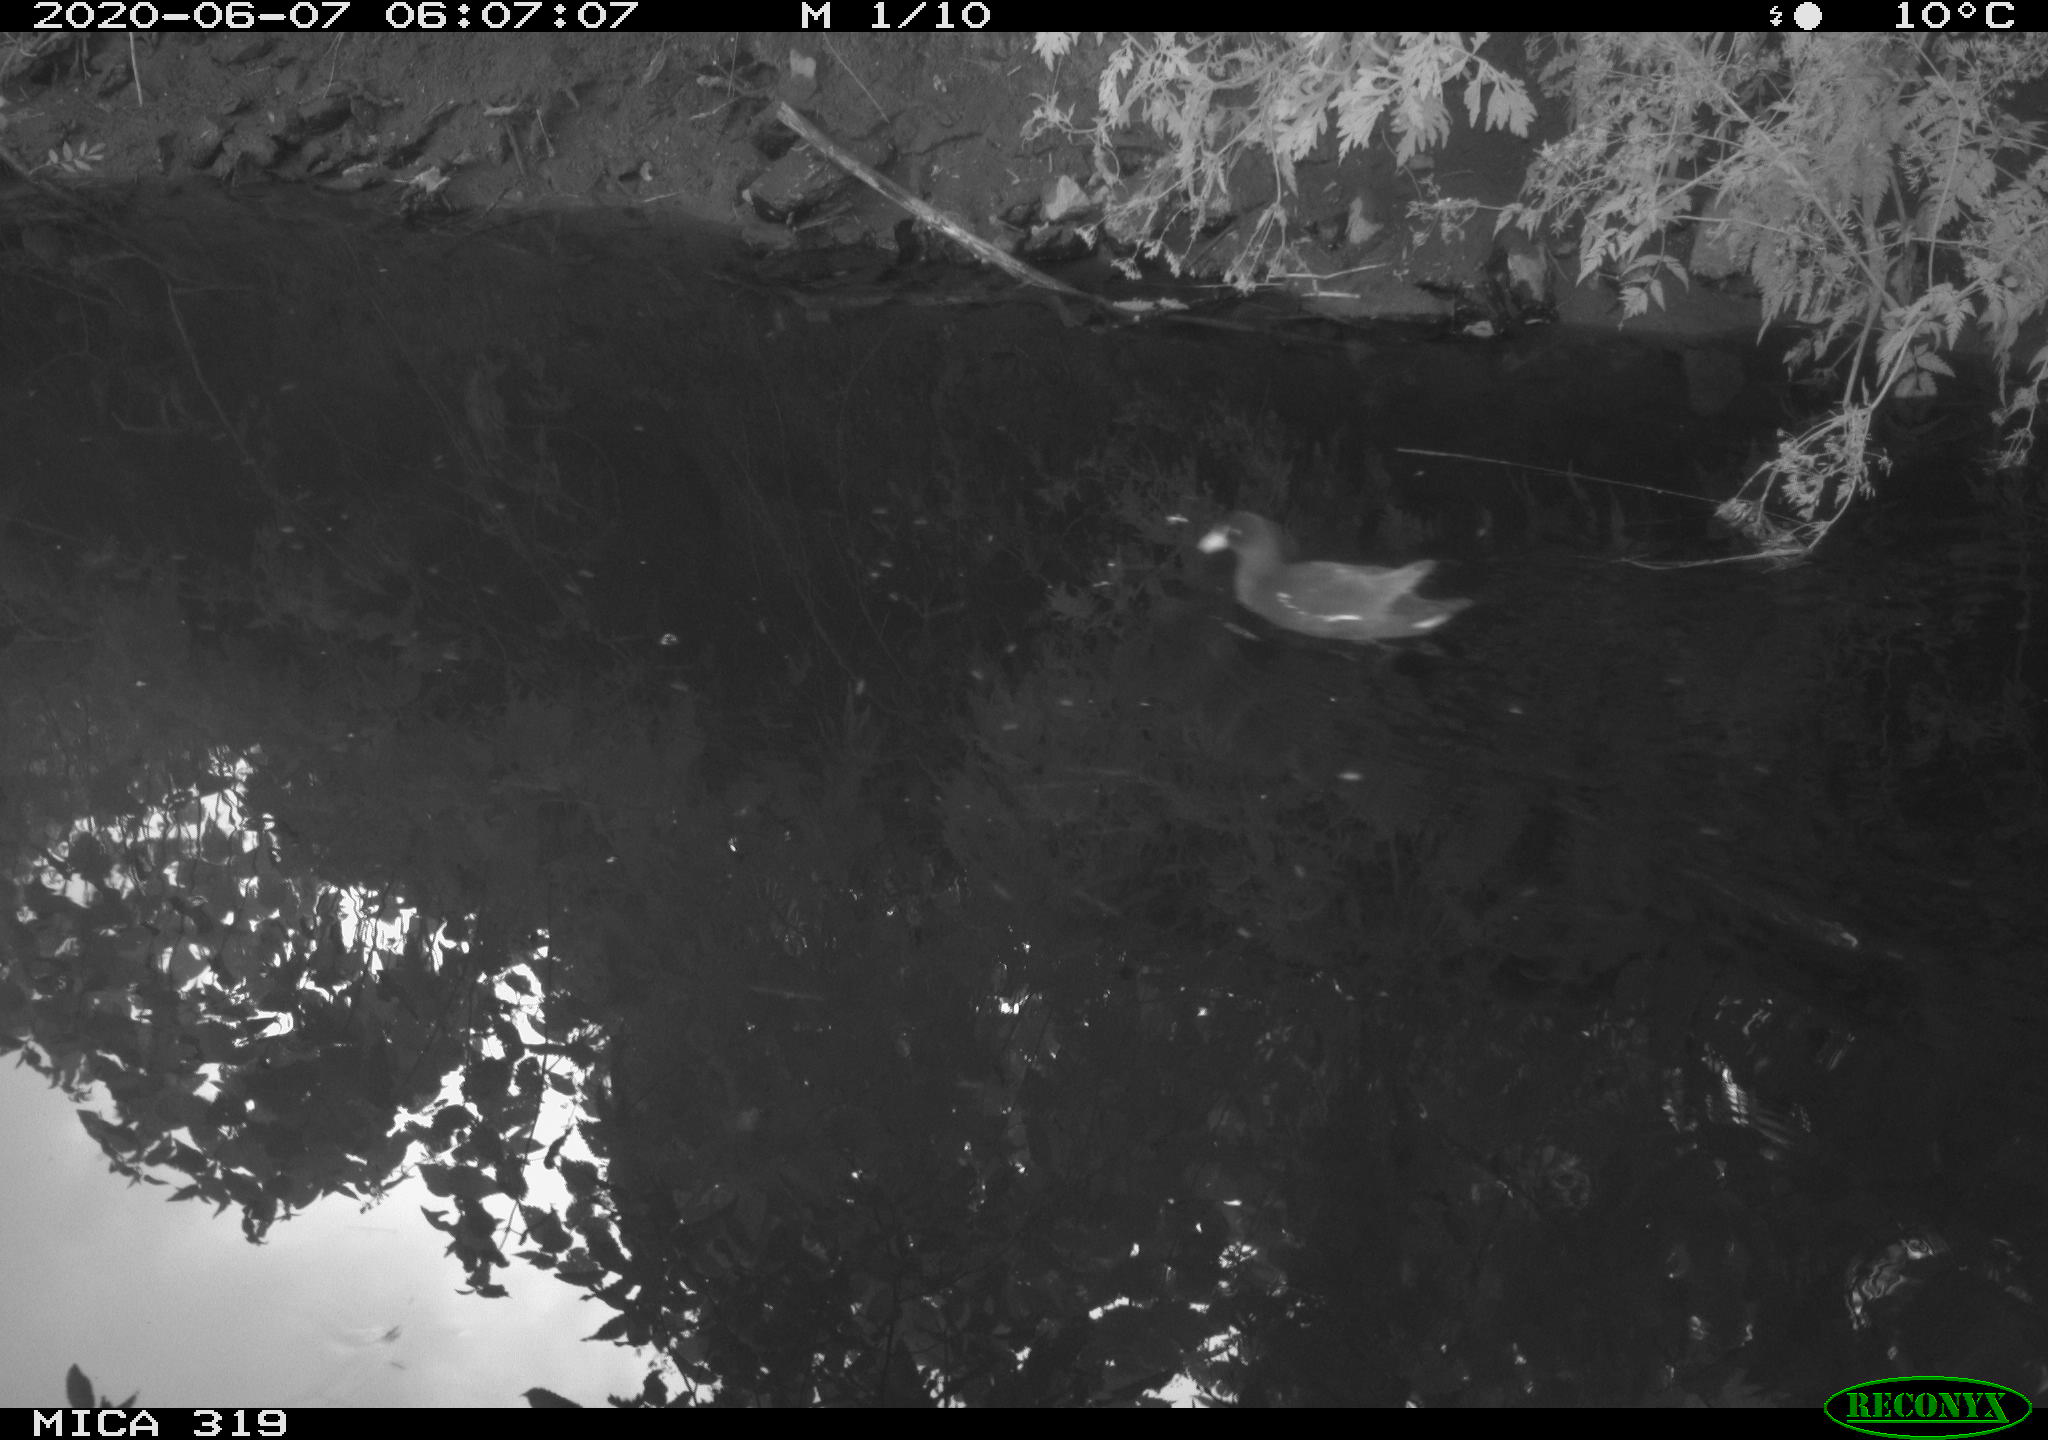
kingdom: Animalia
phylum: Chordata
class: Aves
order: Gruiformes
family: Rallidae
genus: Gallinula
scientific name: Gallinula chloropus
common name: Common moorhen
